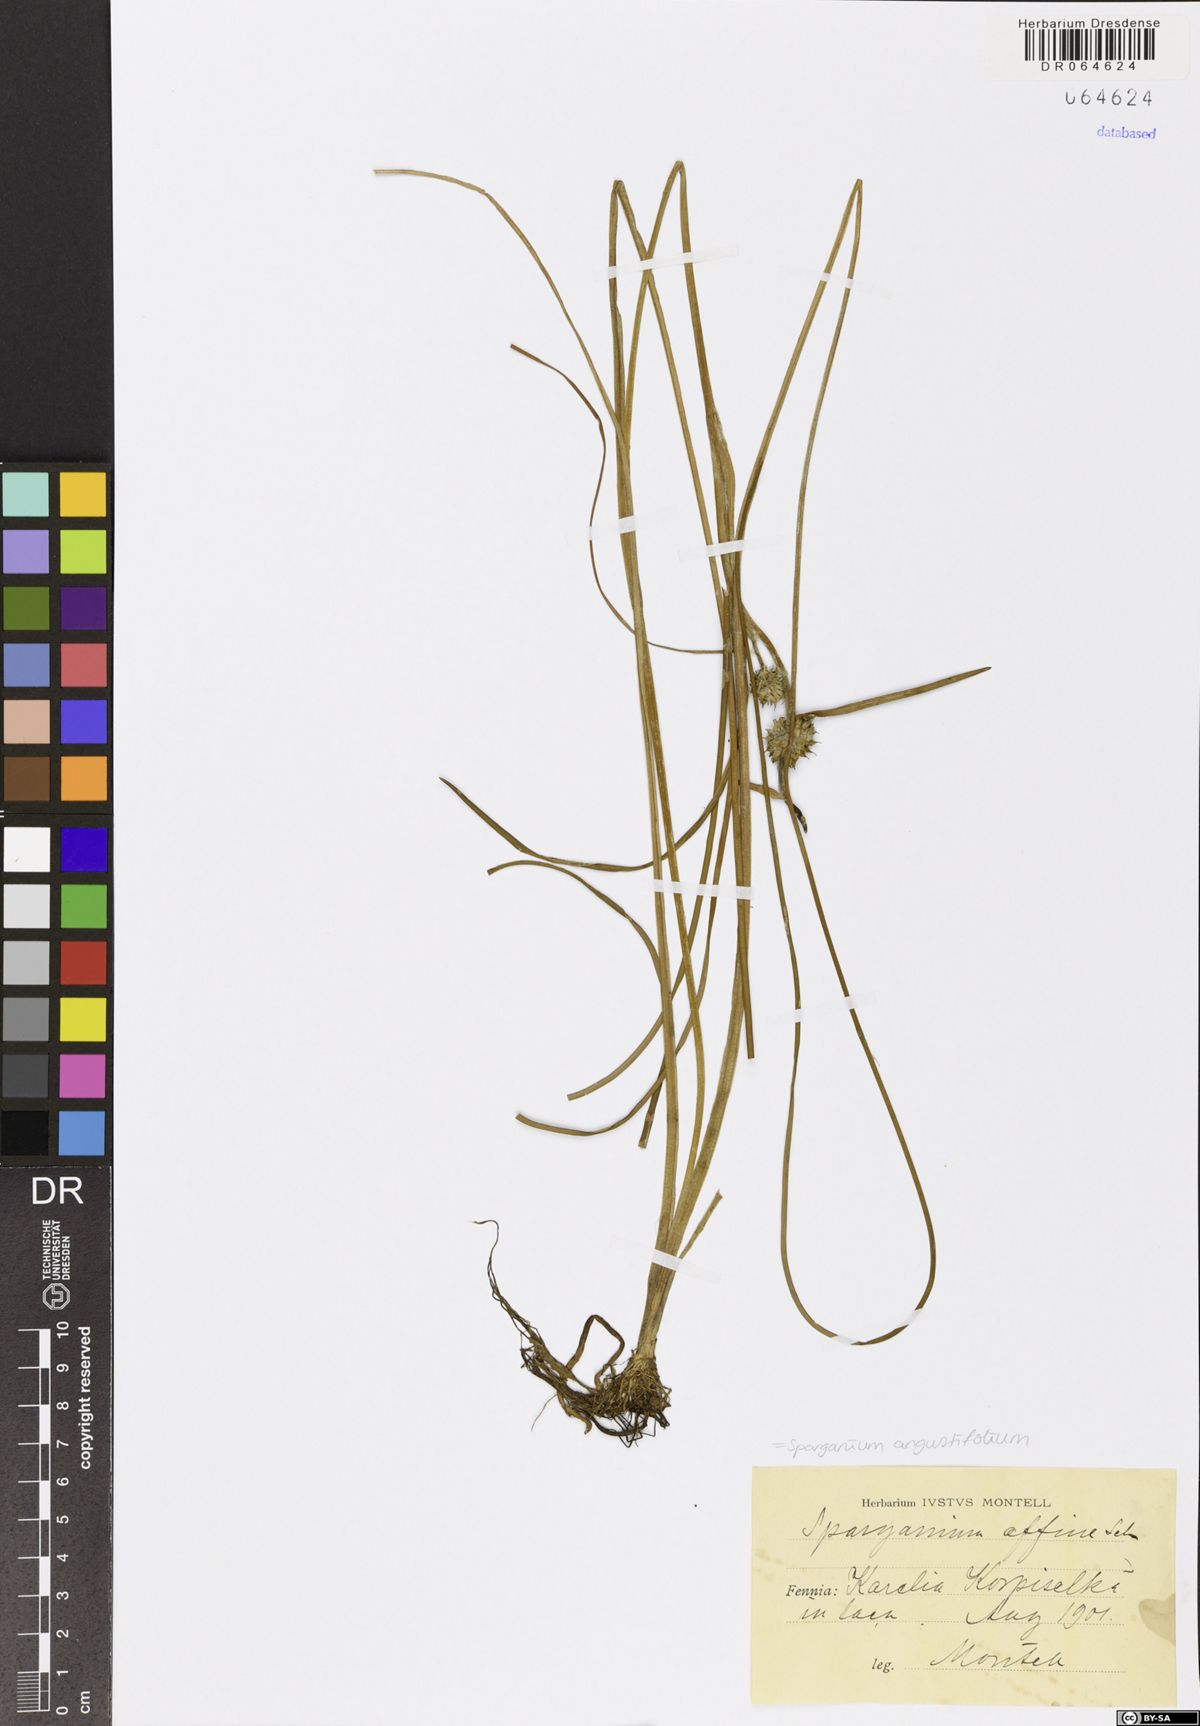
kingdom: Plantae
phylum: Tracheophyta
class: Liliopsida
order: Poales
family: Typhaceae
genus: Sparganium
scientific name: Sparganium angustifolium
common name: Floating bur-reed
